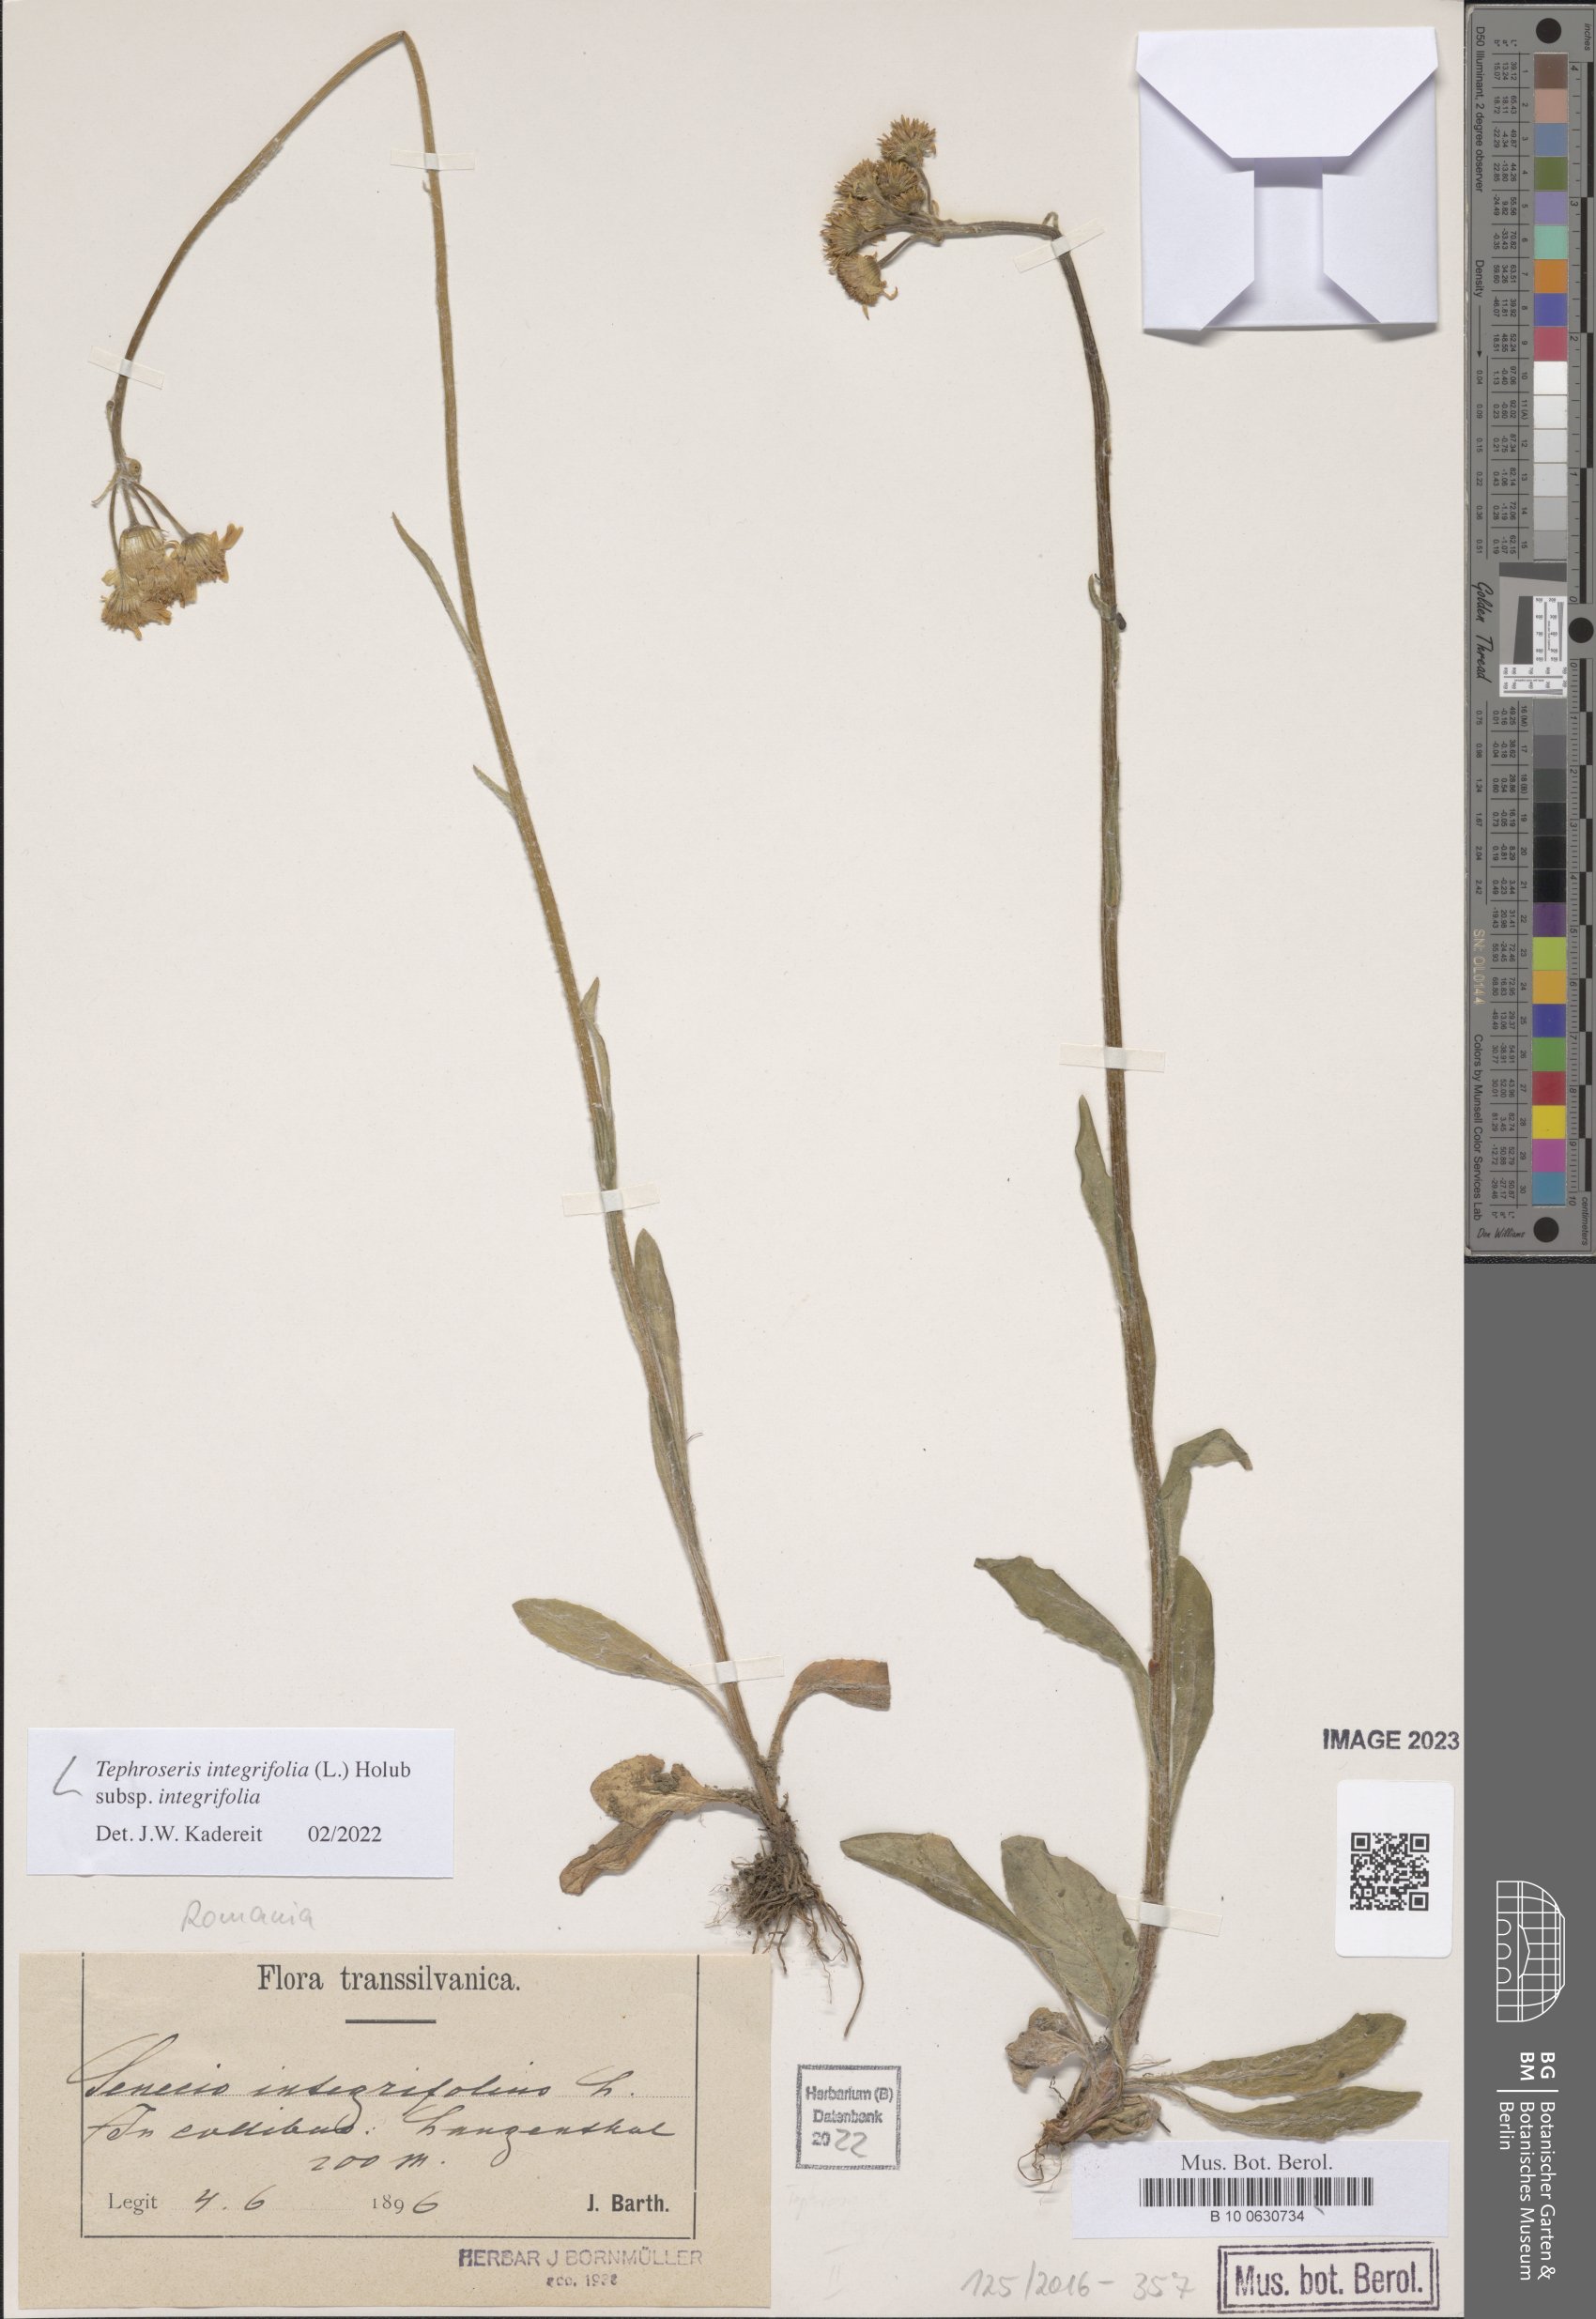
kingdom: Plantae
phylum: Tracheophyta
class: Magnoliopsida
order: Asterales
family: Asteraceae
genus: Tephroseris
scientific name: Tephroseris integrifolia
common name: Field fleawort
